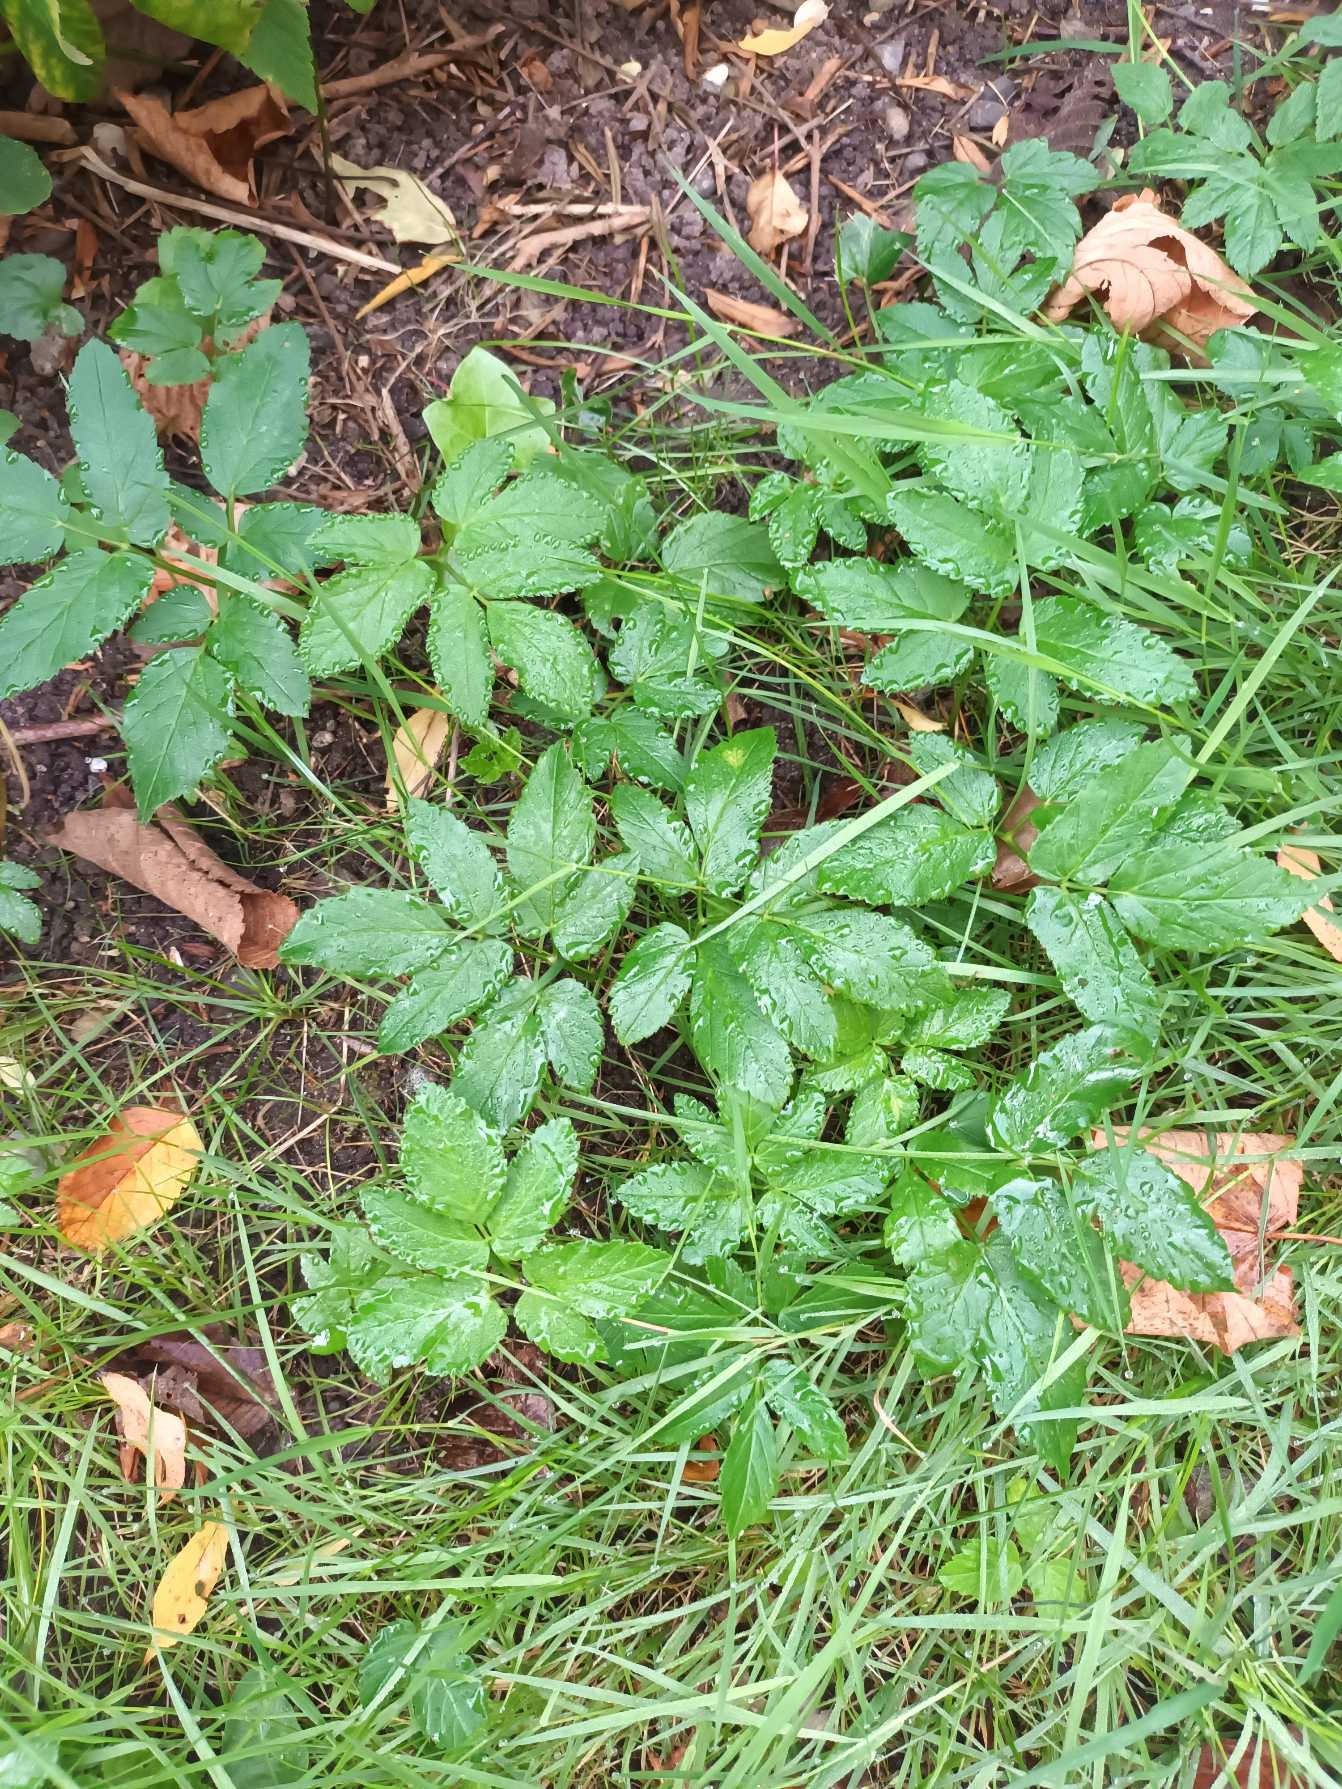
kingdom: Plantae
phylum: Tracheophyta
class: Magnoliopsida
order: Apiales
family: Apiaceae
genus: Aegopodium
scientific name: Aegopodium podagraria
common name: Skvalderkål
